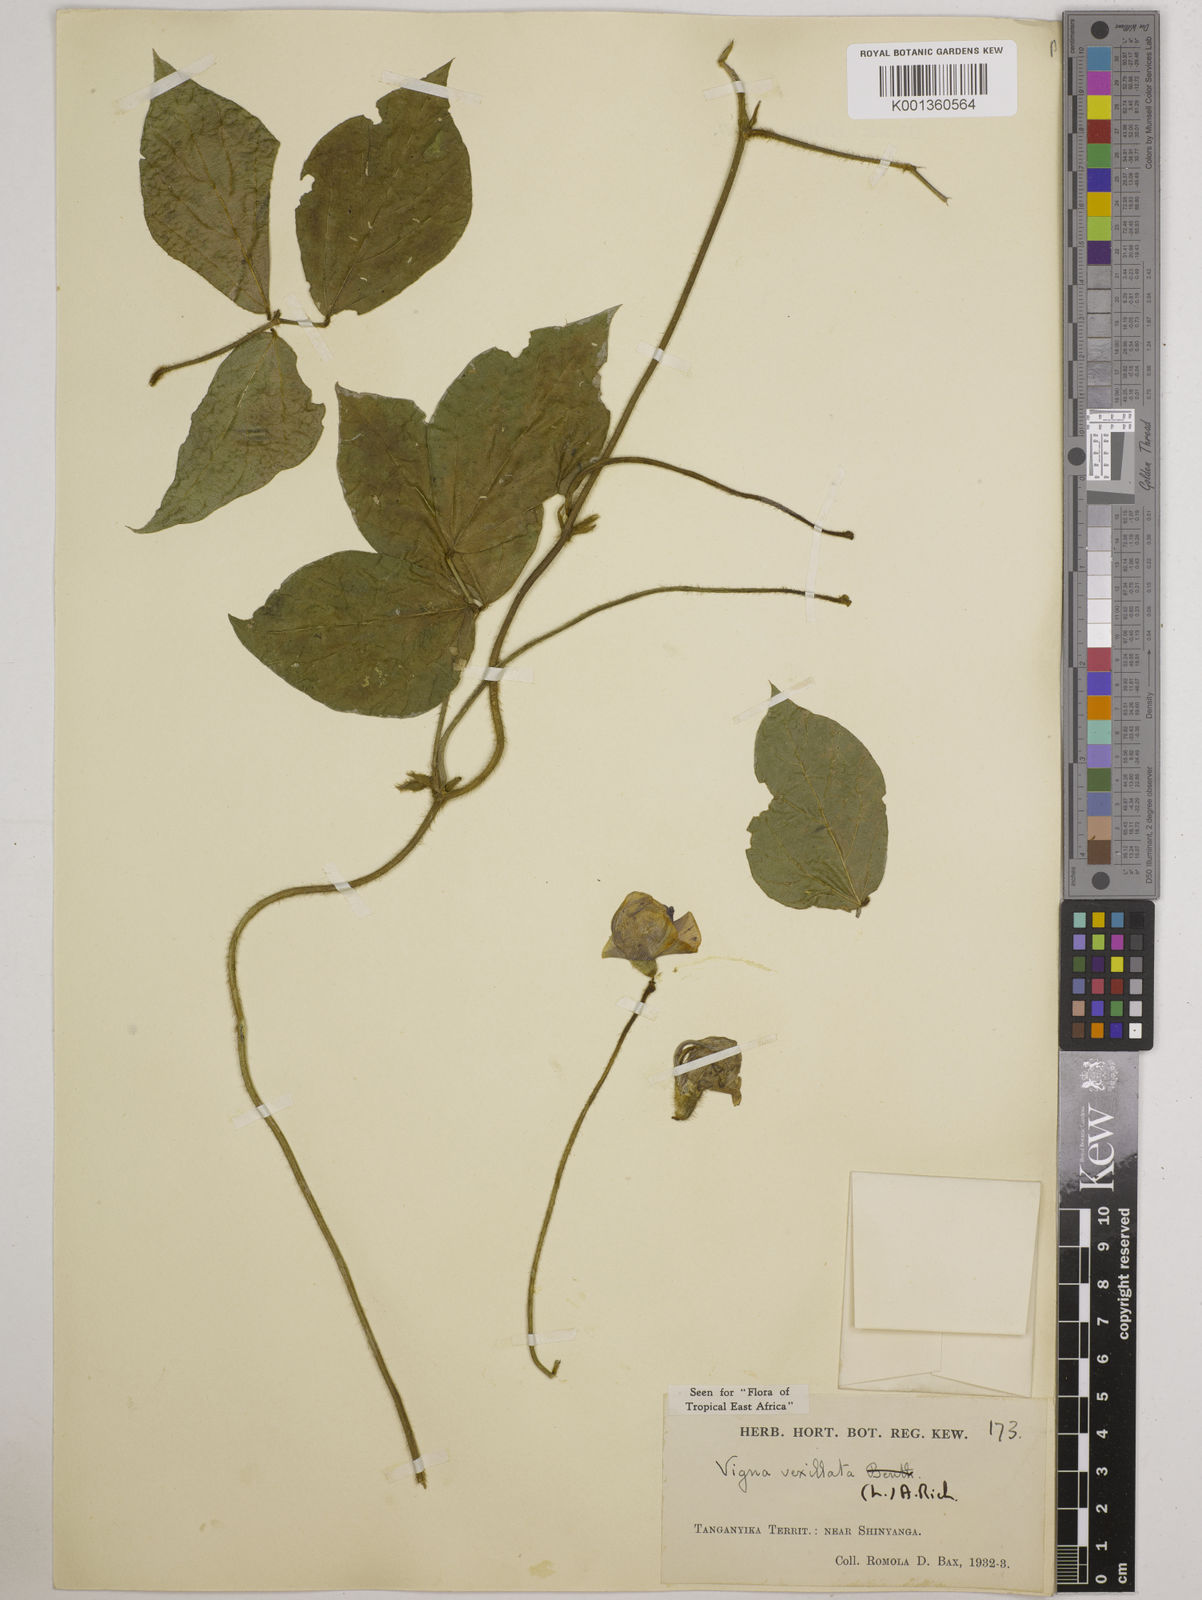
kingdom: Plantae
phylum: Tracheophyta
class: Magnoliopsida
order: Fabales
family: Fabaceae
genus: Vigna
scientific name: Vigna vexillata
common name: Zombi pea
